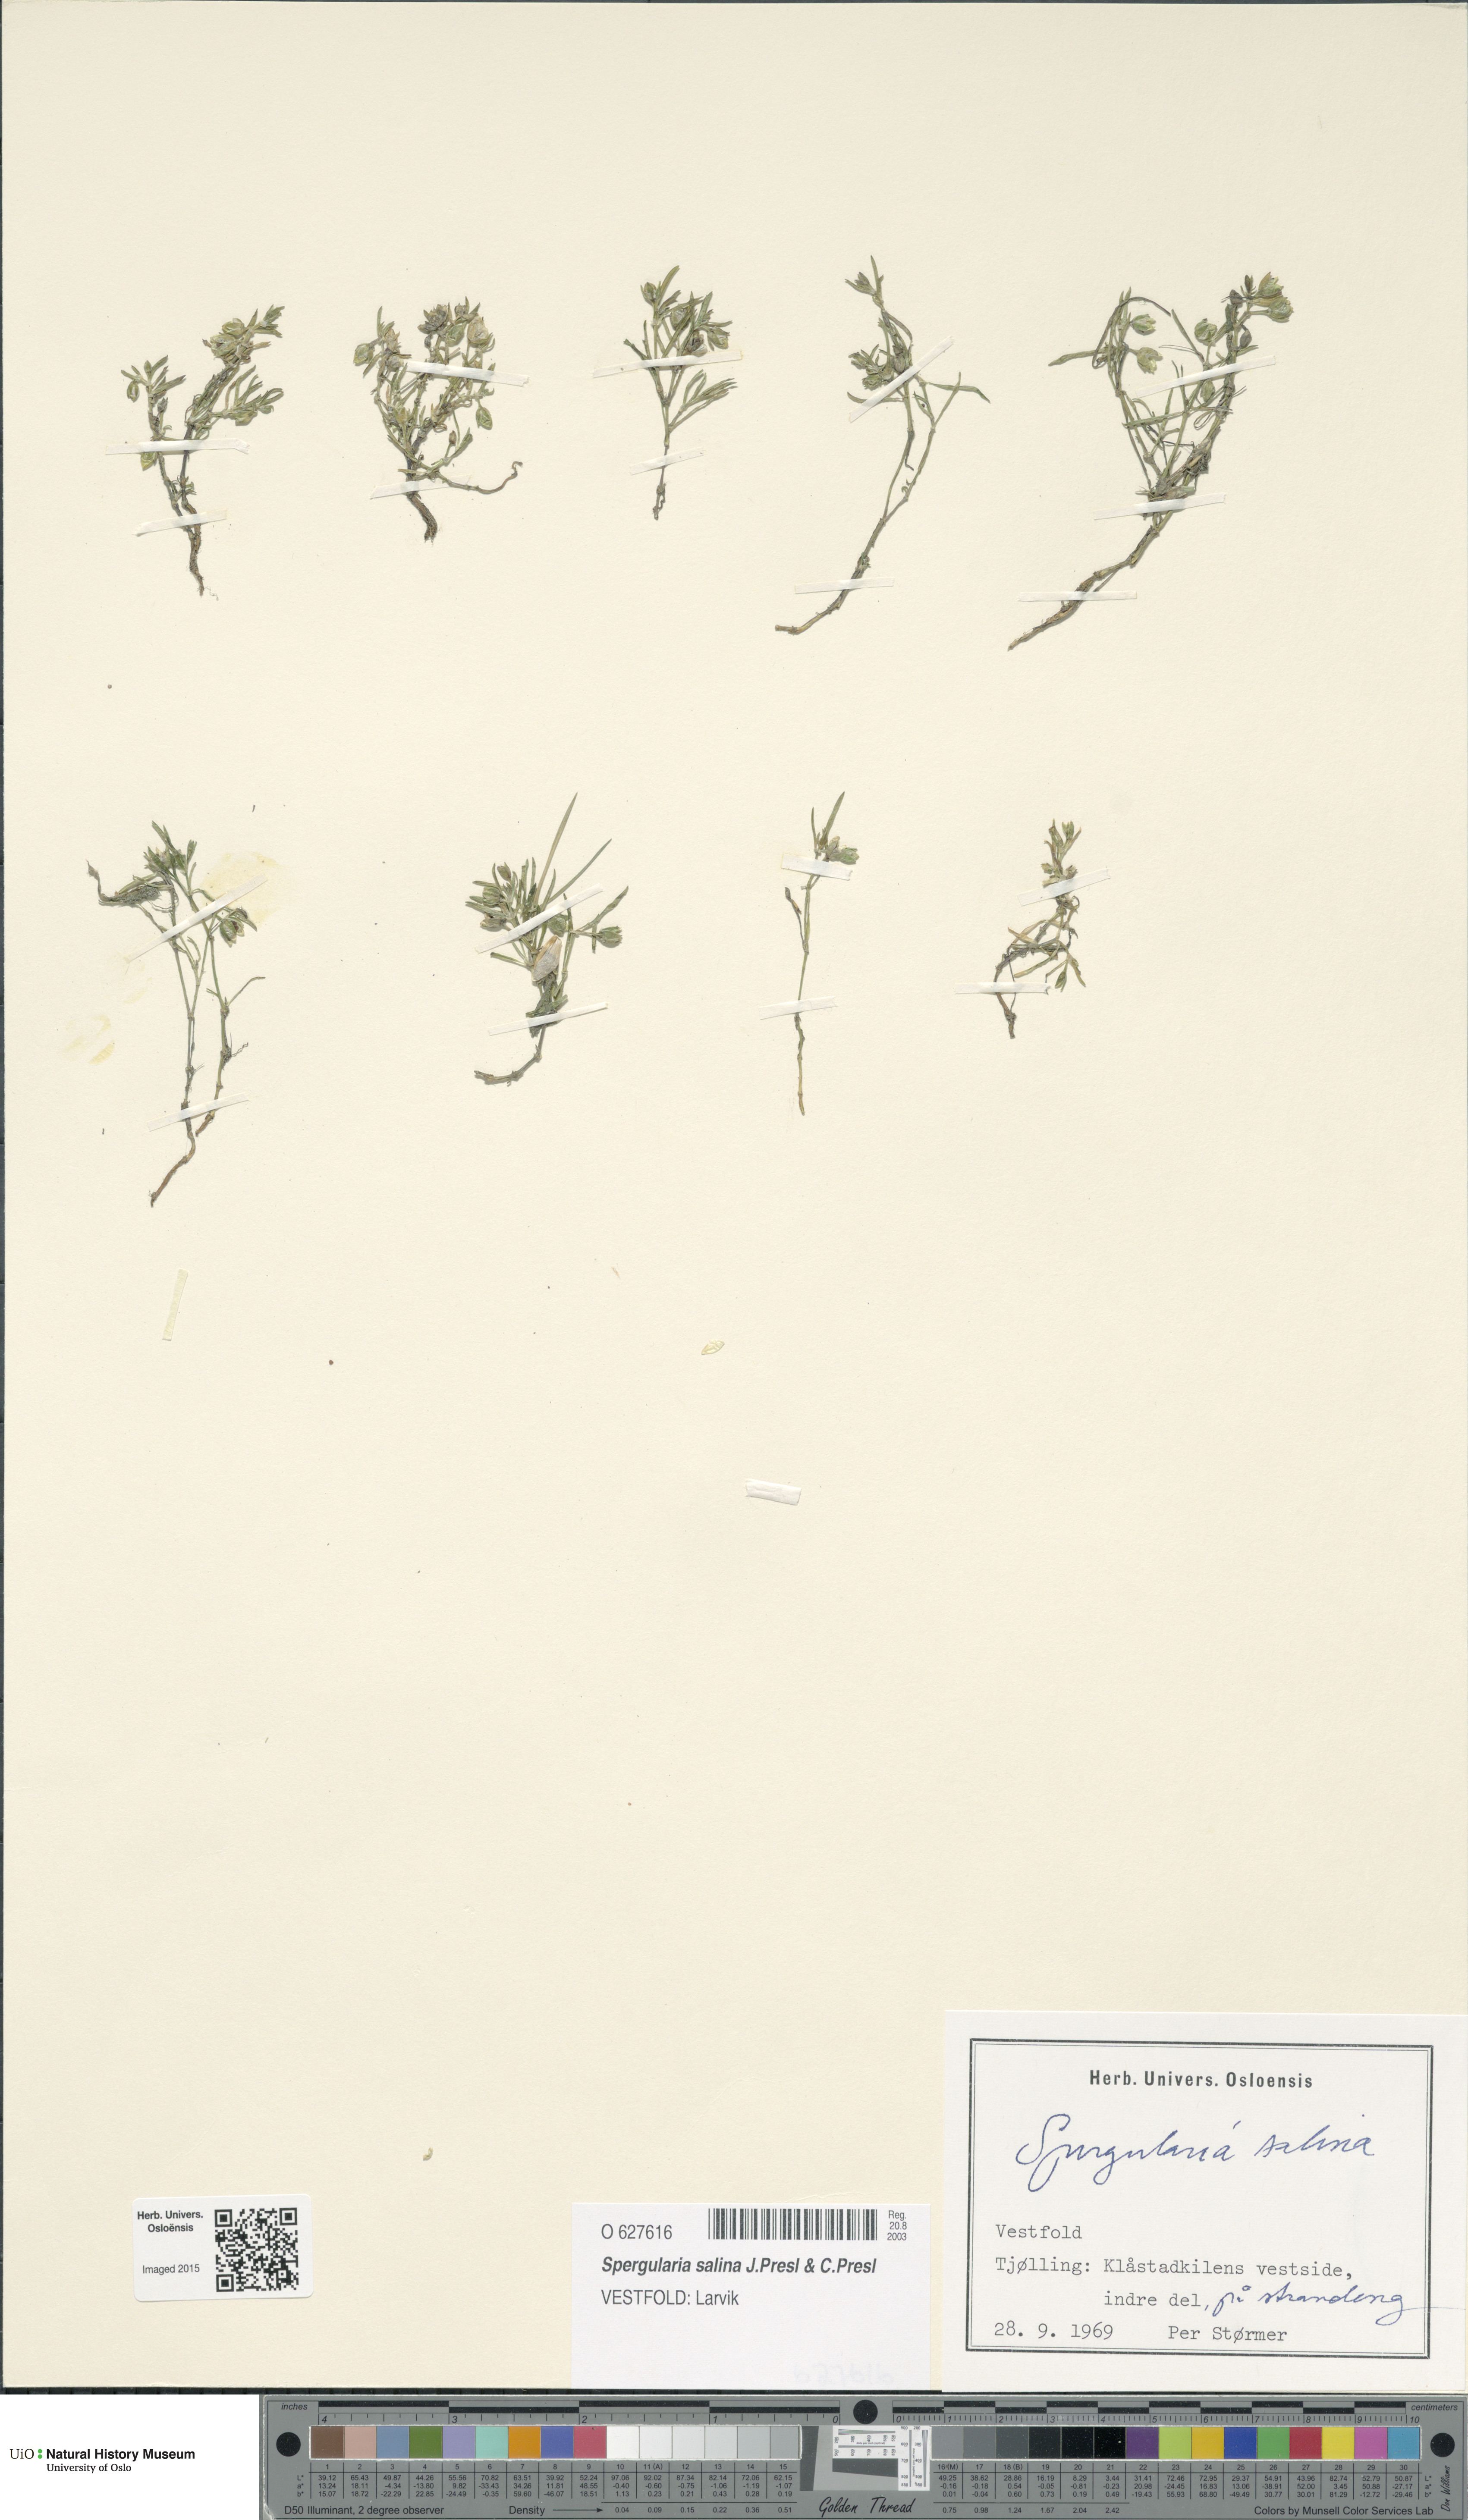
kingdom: Plantae
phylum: Tracheophyta
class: Magnoliopsida
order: Caryophyllales
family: Caryophyllaceae
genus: Spergularia
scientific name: Spergularia marina
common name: Lesser sea-spurrey
